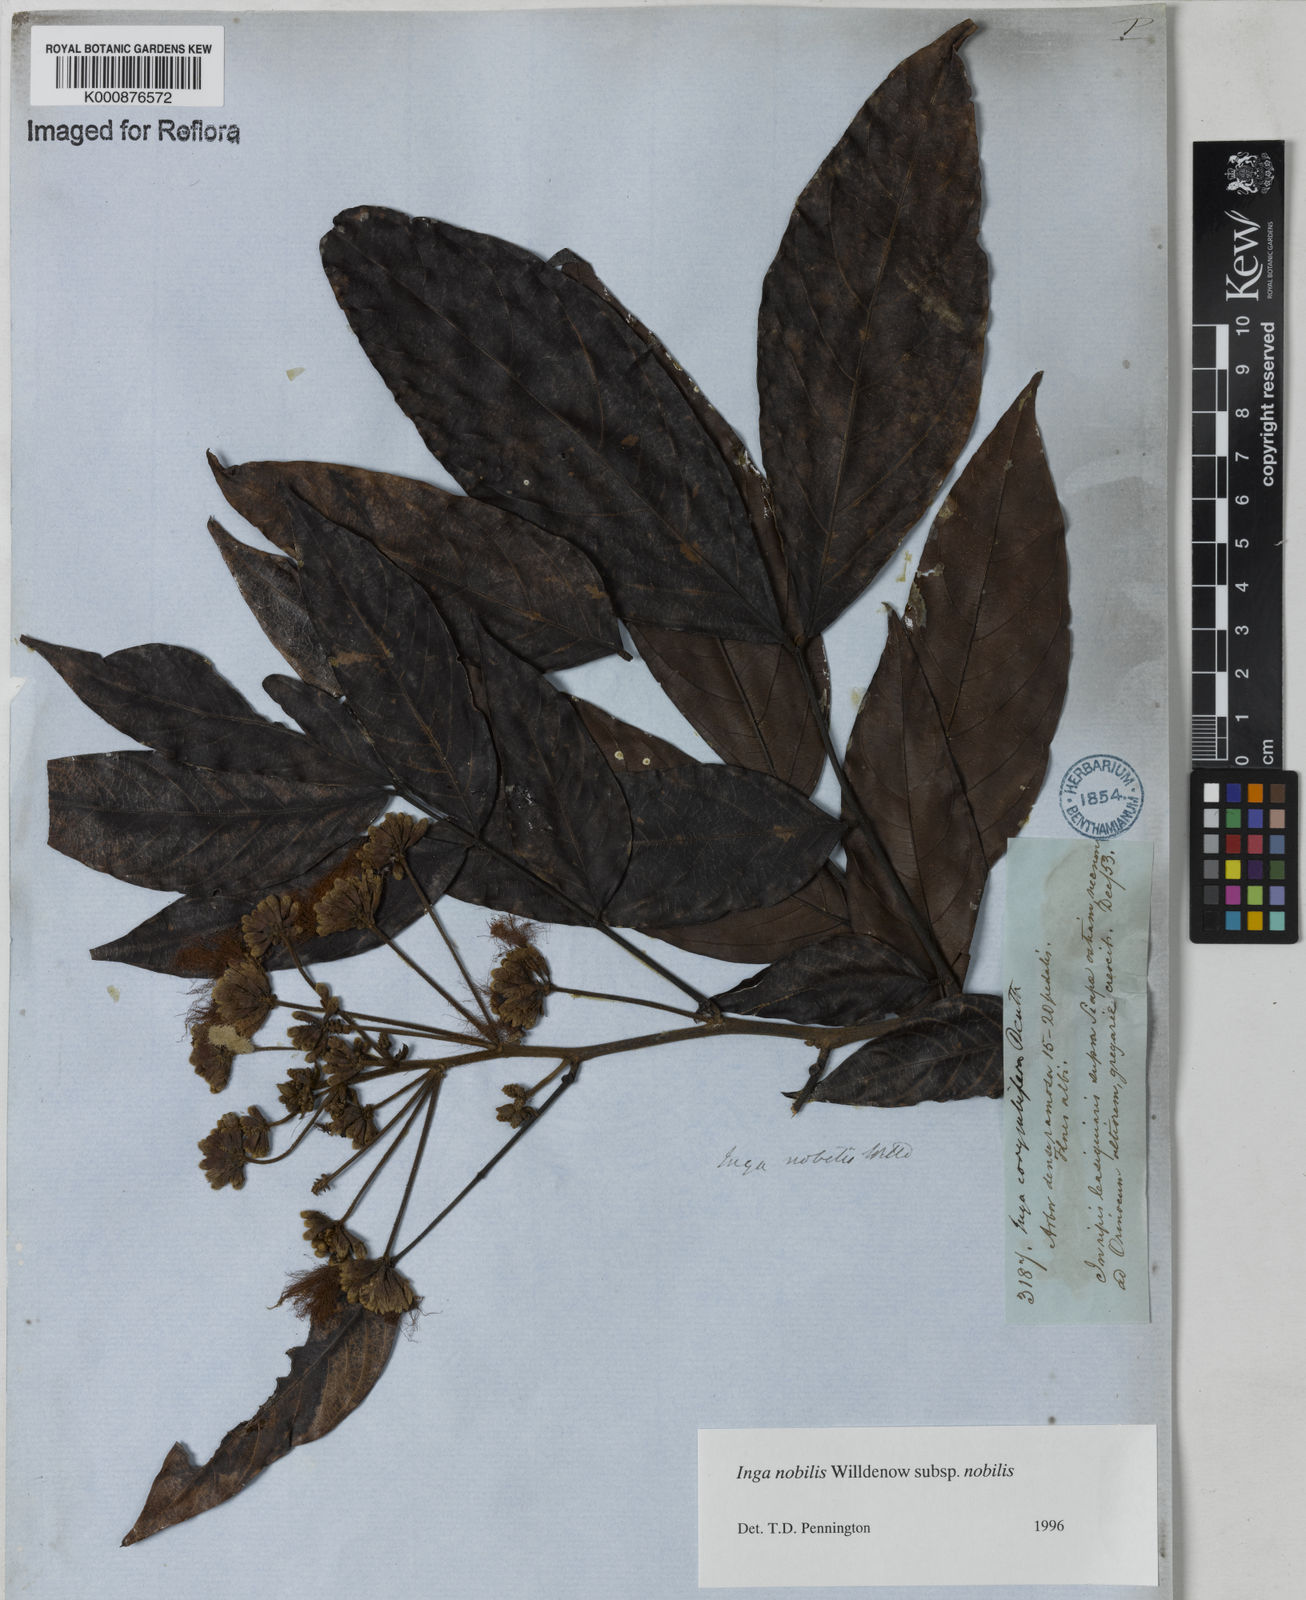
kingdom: Plantae
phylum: Tracheophyta
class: Magnoliopsida
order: Fabales
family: Fabaceae
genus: Inga
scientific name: Inga nobilis
